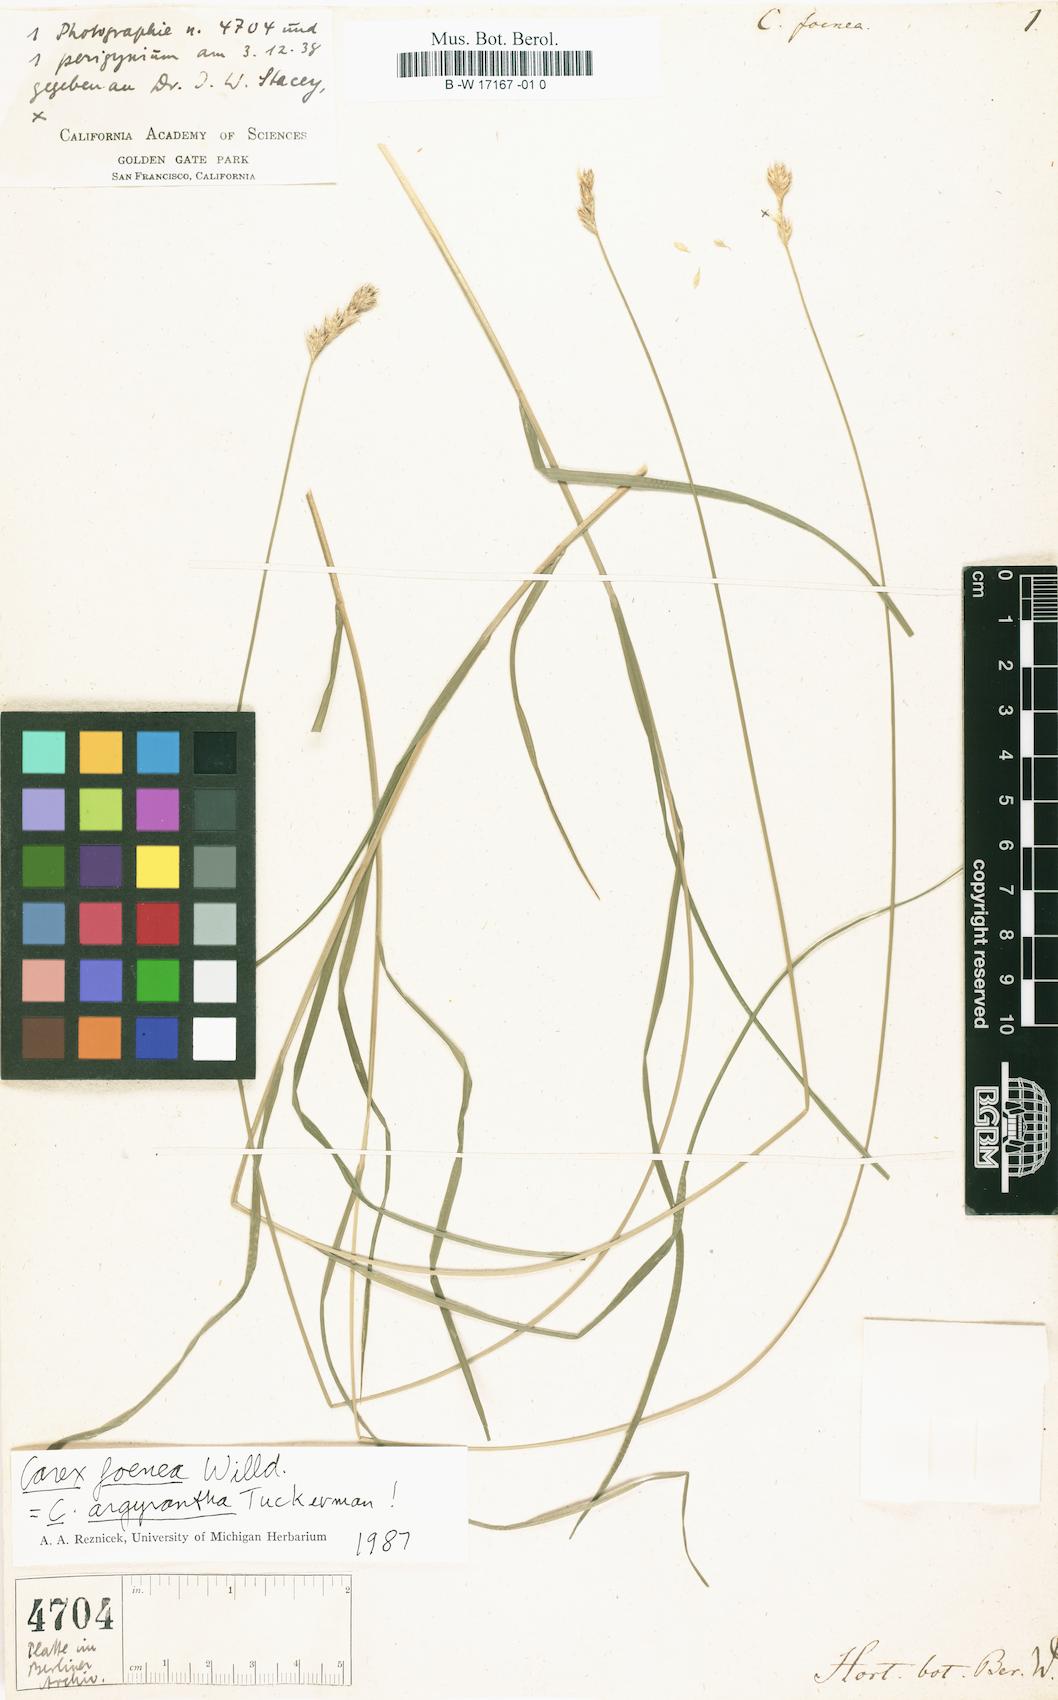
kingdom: Plantae
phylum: Tracheophyta
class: Liliopsida
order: Poales
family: Cyperaceae
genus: Carex
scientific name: Carex foenea
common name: Bronze sedge
